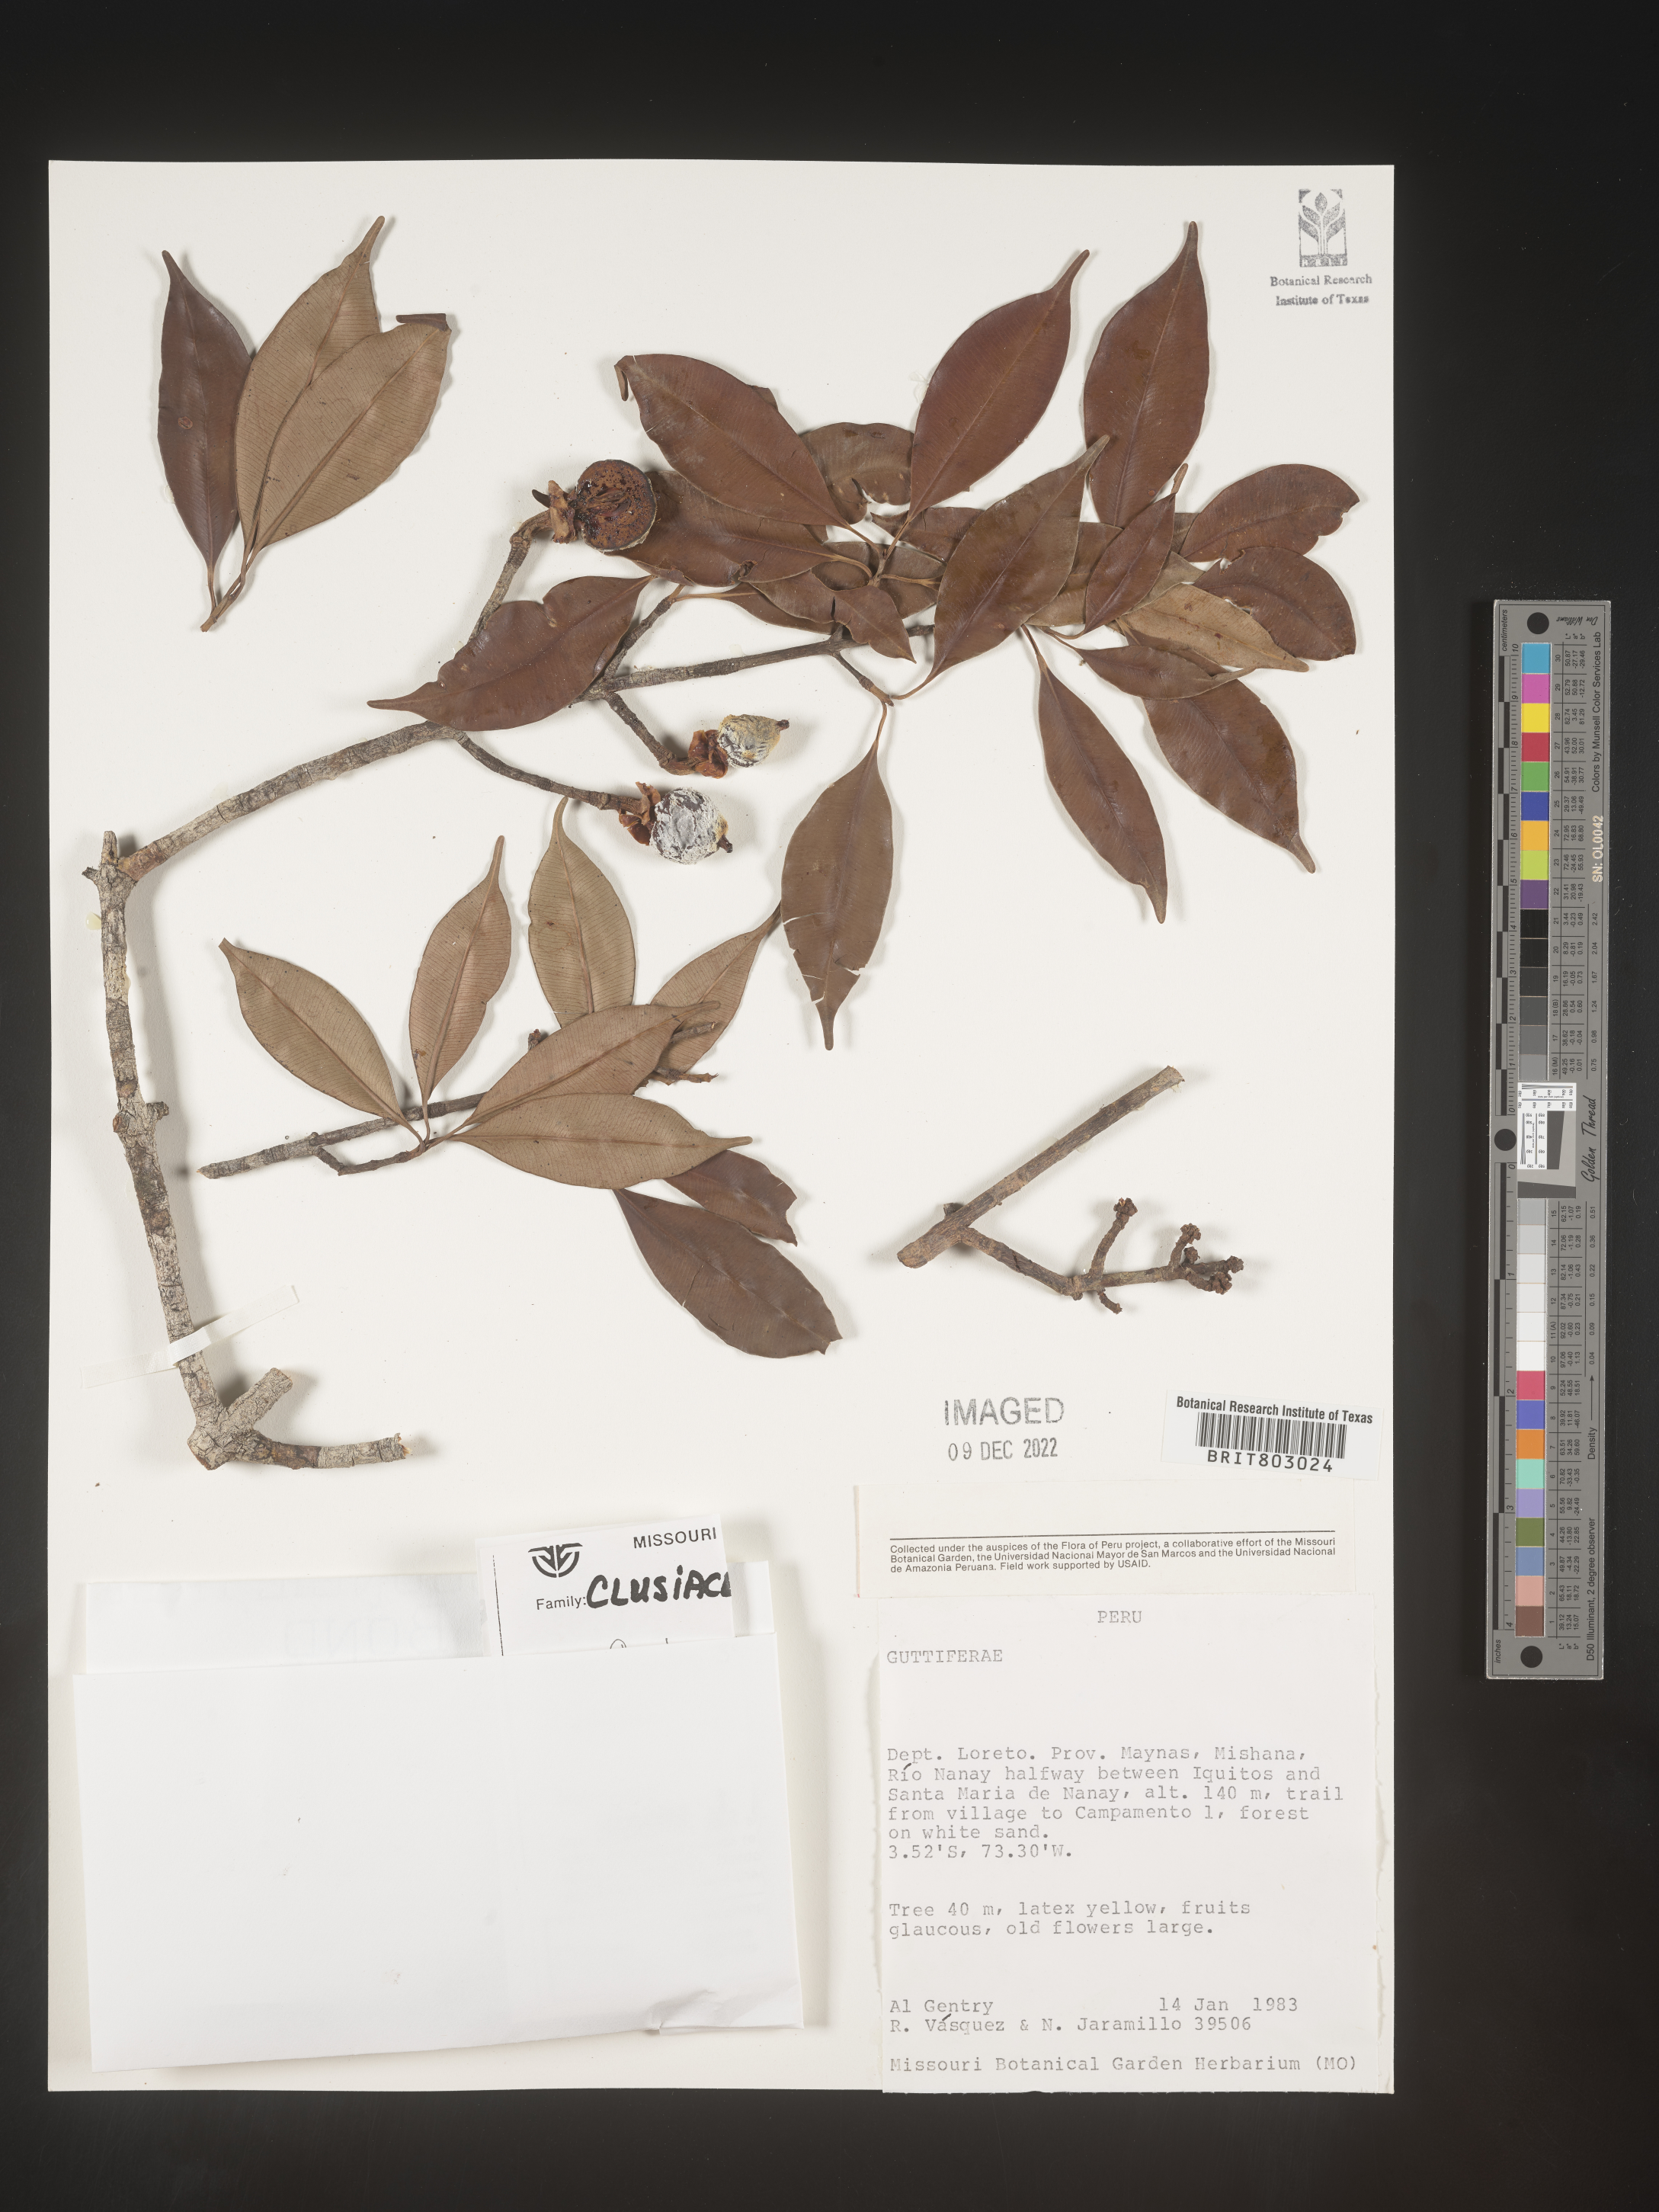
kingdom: Plantae
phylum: Tracheophyta
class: Magnoliopsida
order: Malpighiales
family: Clusiaceae
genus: Moronobea
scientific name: Moronobea
